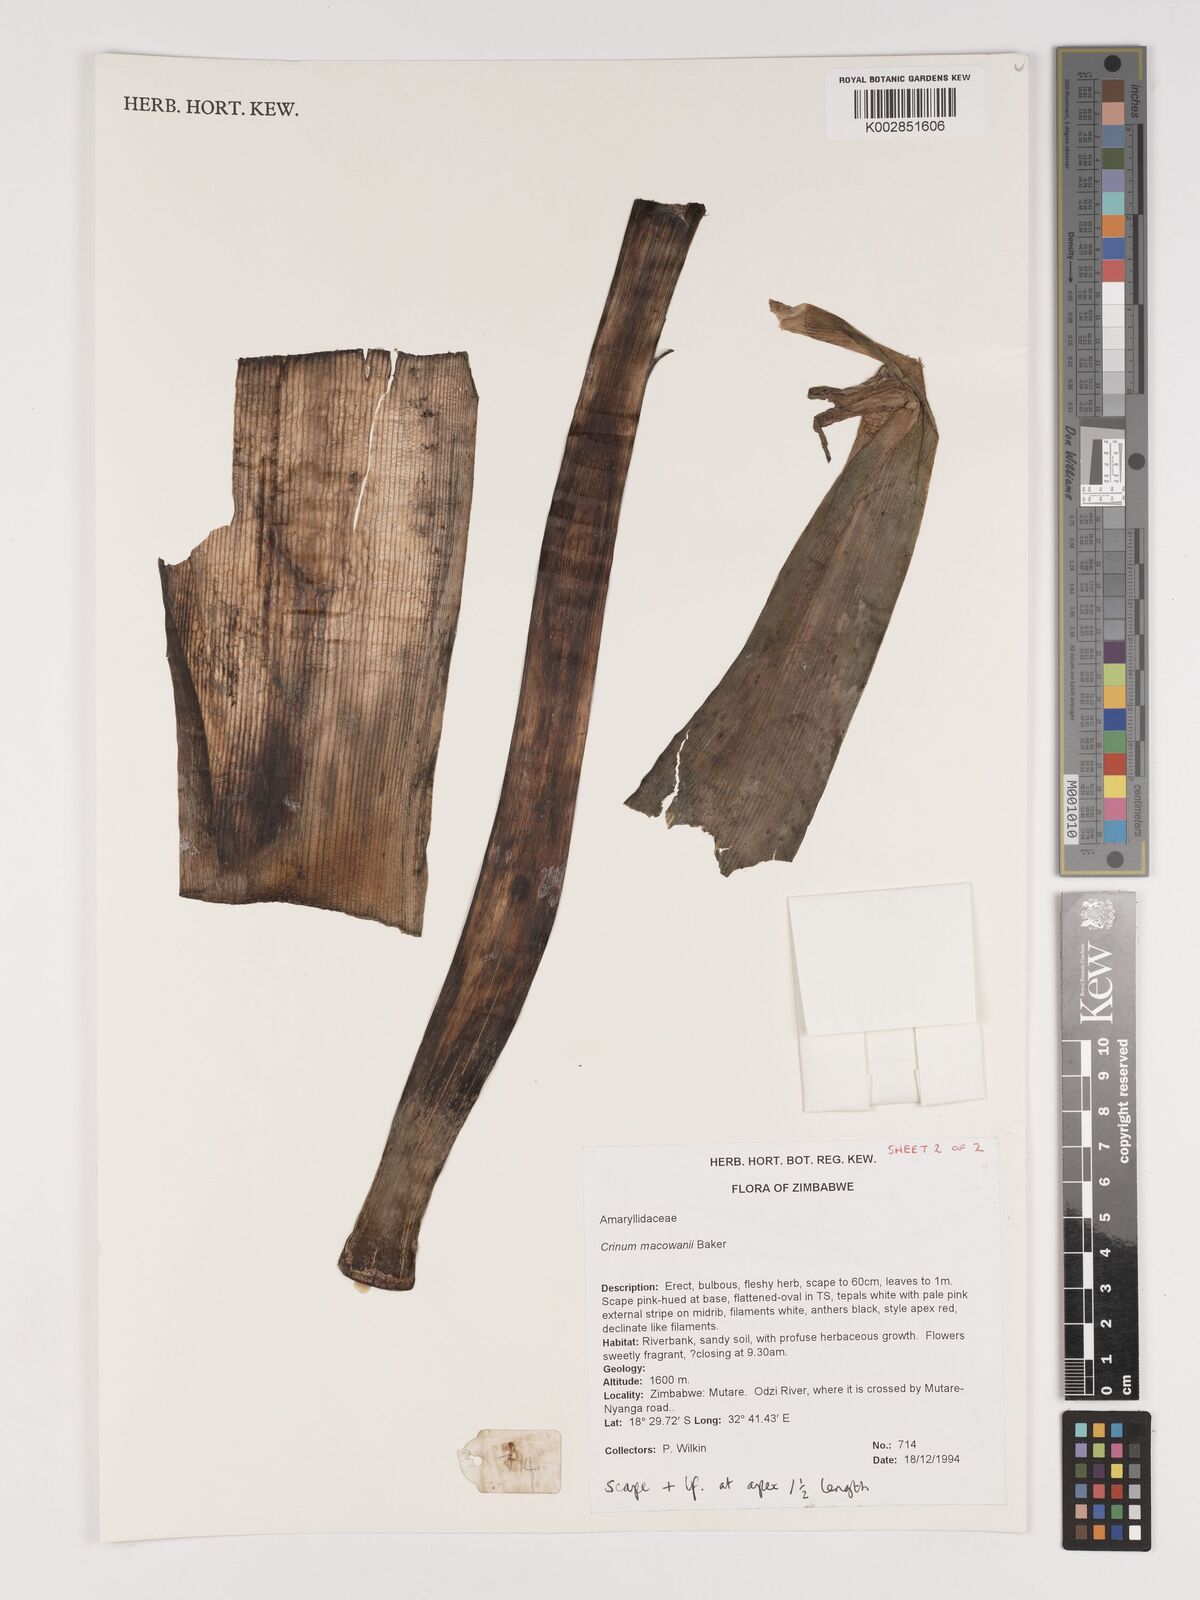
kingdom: Plantae
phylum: Tracheophyta
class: Liliopsida
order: Asparagales
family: Amaryllidaceae
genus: Crinum
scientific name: Crinum macowanii
